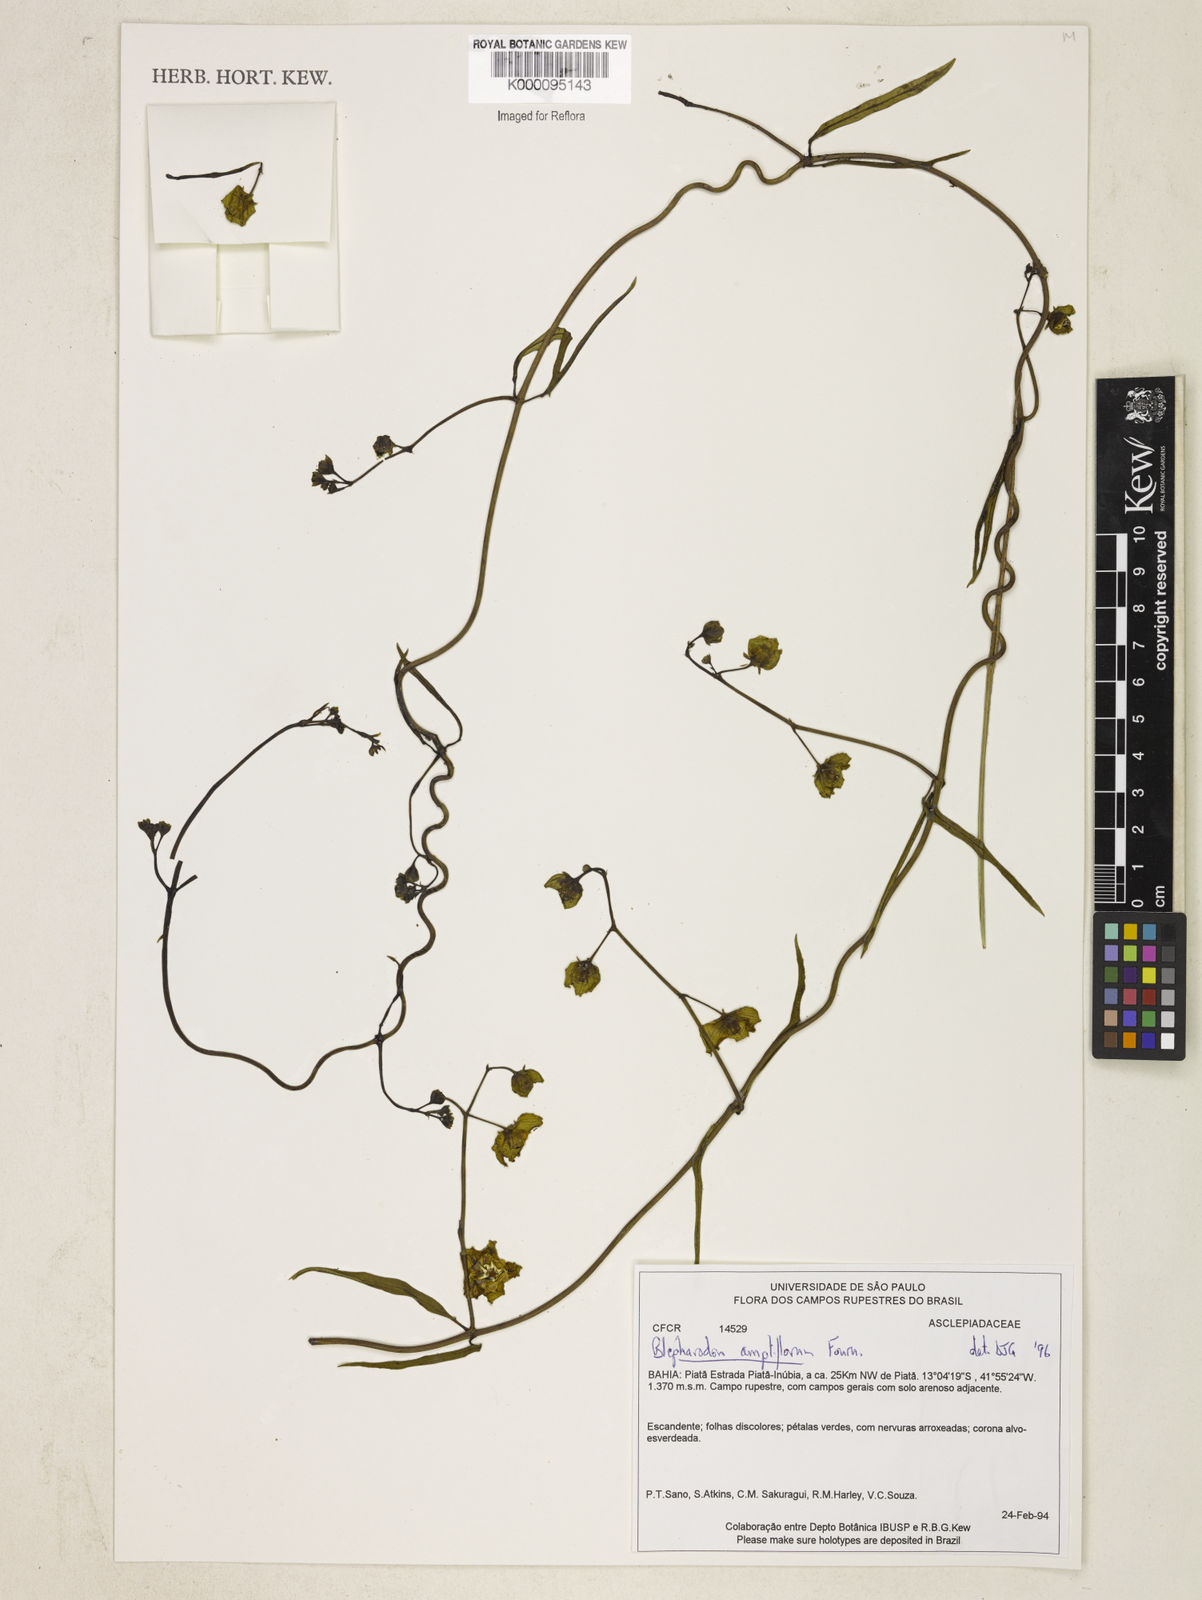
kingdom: Plantae
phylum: Tracheophyta
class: Magnoliopsida
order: Gentianales
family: Apocynaceae
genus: Blepharodon
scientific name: Blepharodon ampliflorum
